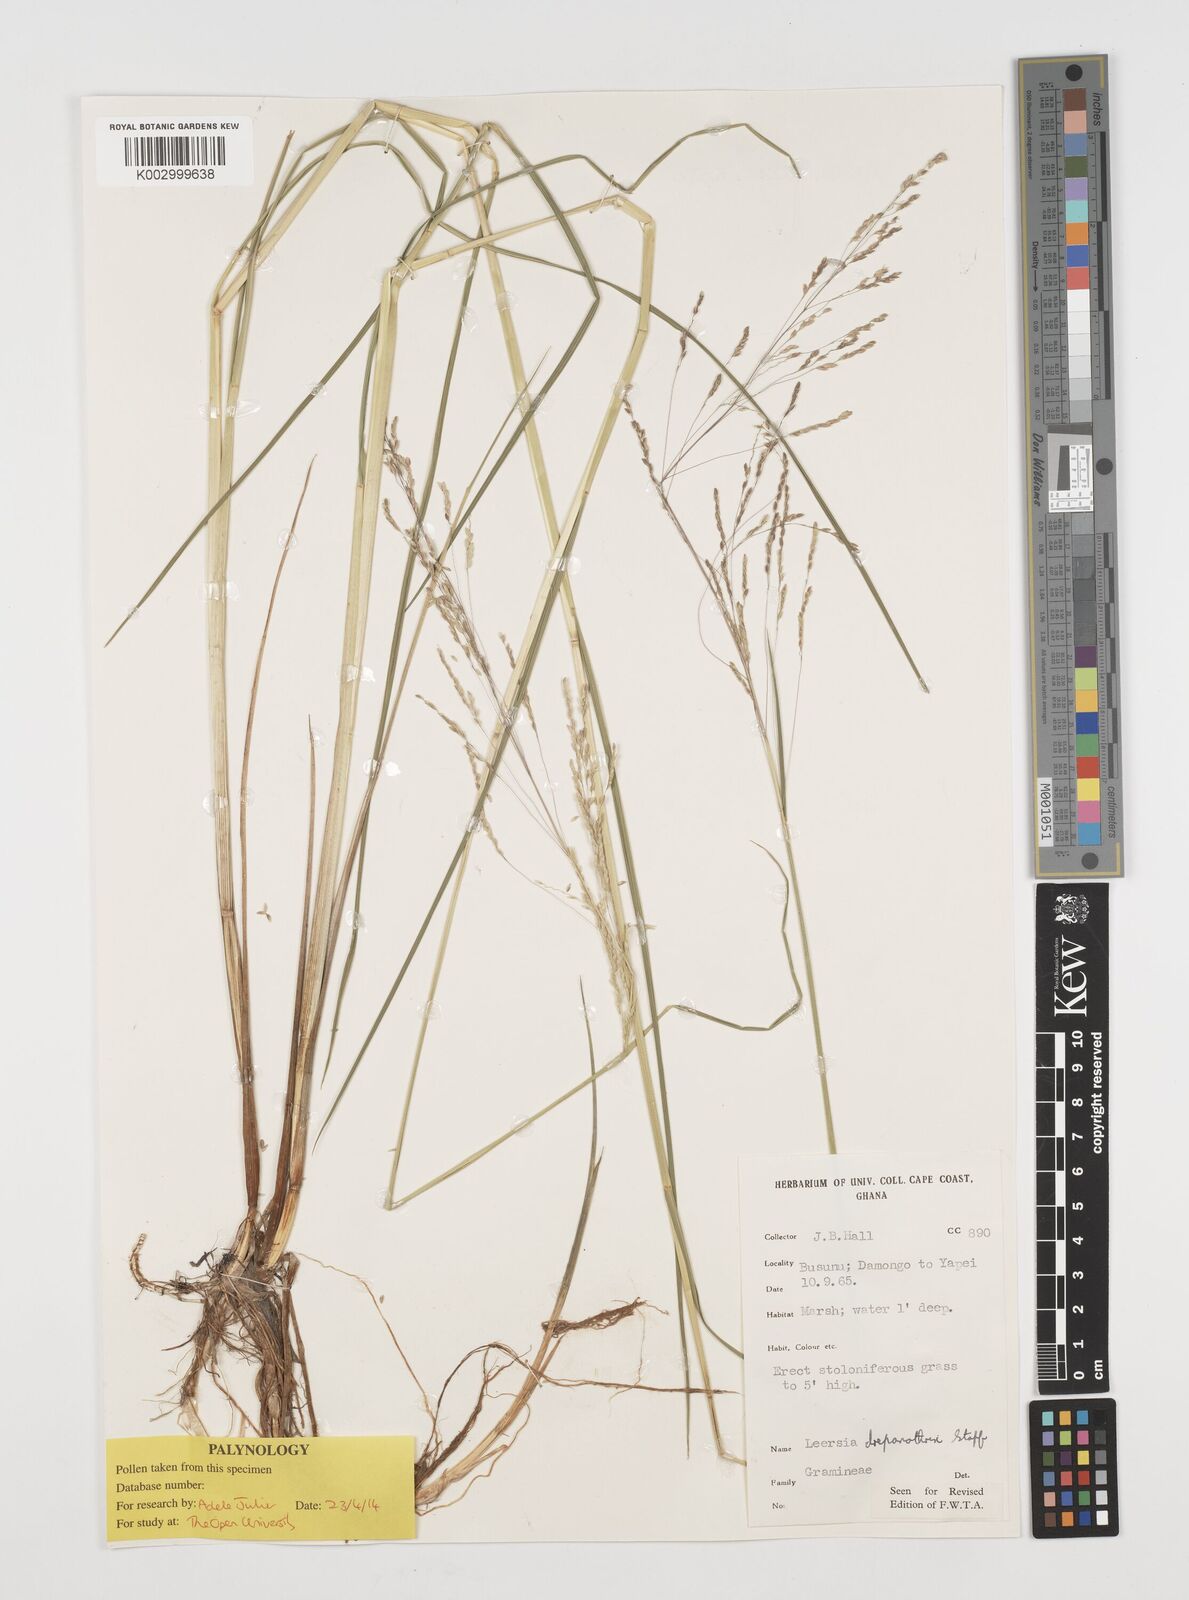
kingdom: Plantae
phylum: Tracheophyta
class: Liliopsida
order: Poales
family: Poaceae
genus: Leersia
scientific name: Leersia drepanothrix
